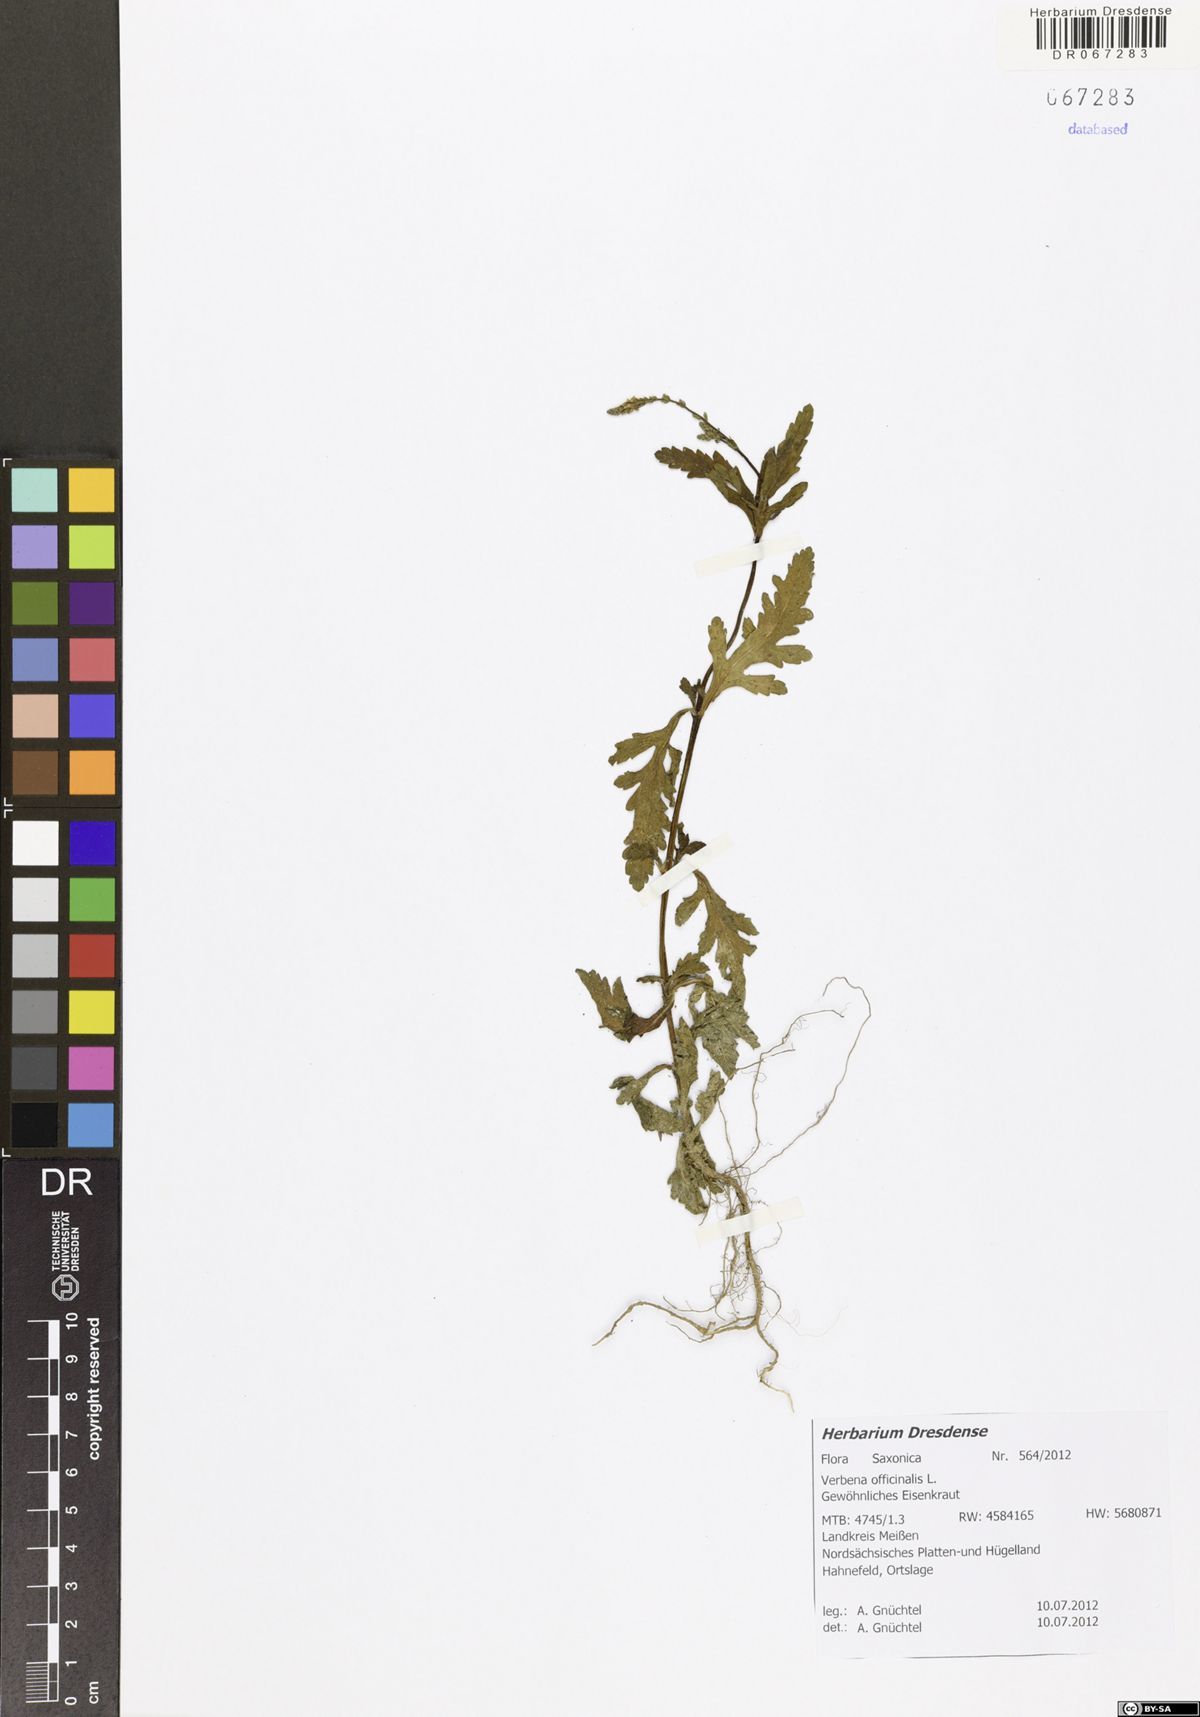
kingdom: Plantae
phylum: Tracheophyta
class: Magnoliopsida
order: Lamiales
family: Verbenaceae
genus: Verbena
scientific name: Verbena officinalis
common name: Vervain
